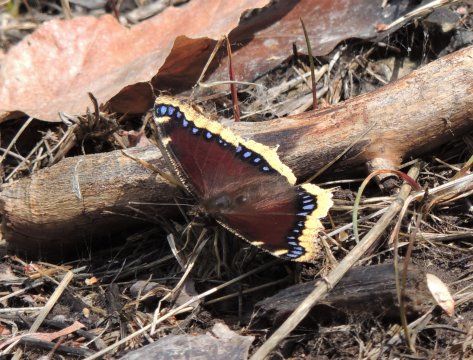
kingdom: Animalia
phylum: Arthropoda
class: Insecta
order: Lepidoptera
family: Nymphalidae
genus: Nymphalis
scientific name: Nymphalis antiopa
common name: Mourning Cloak
